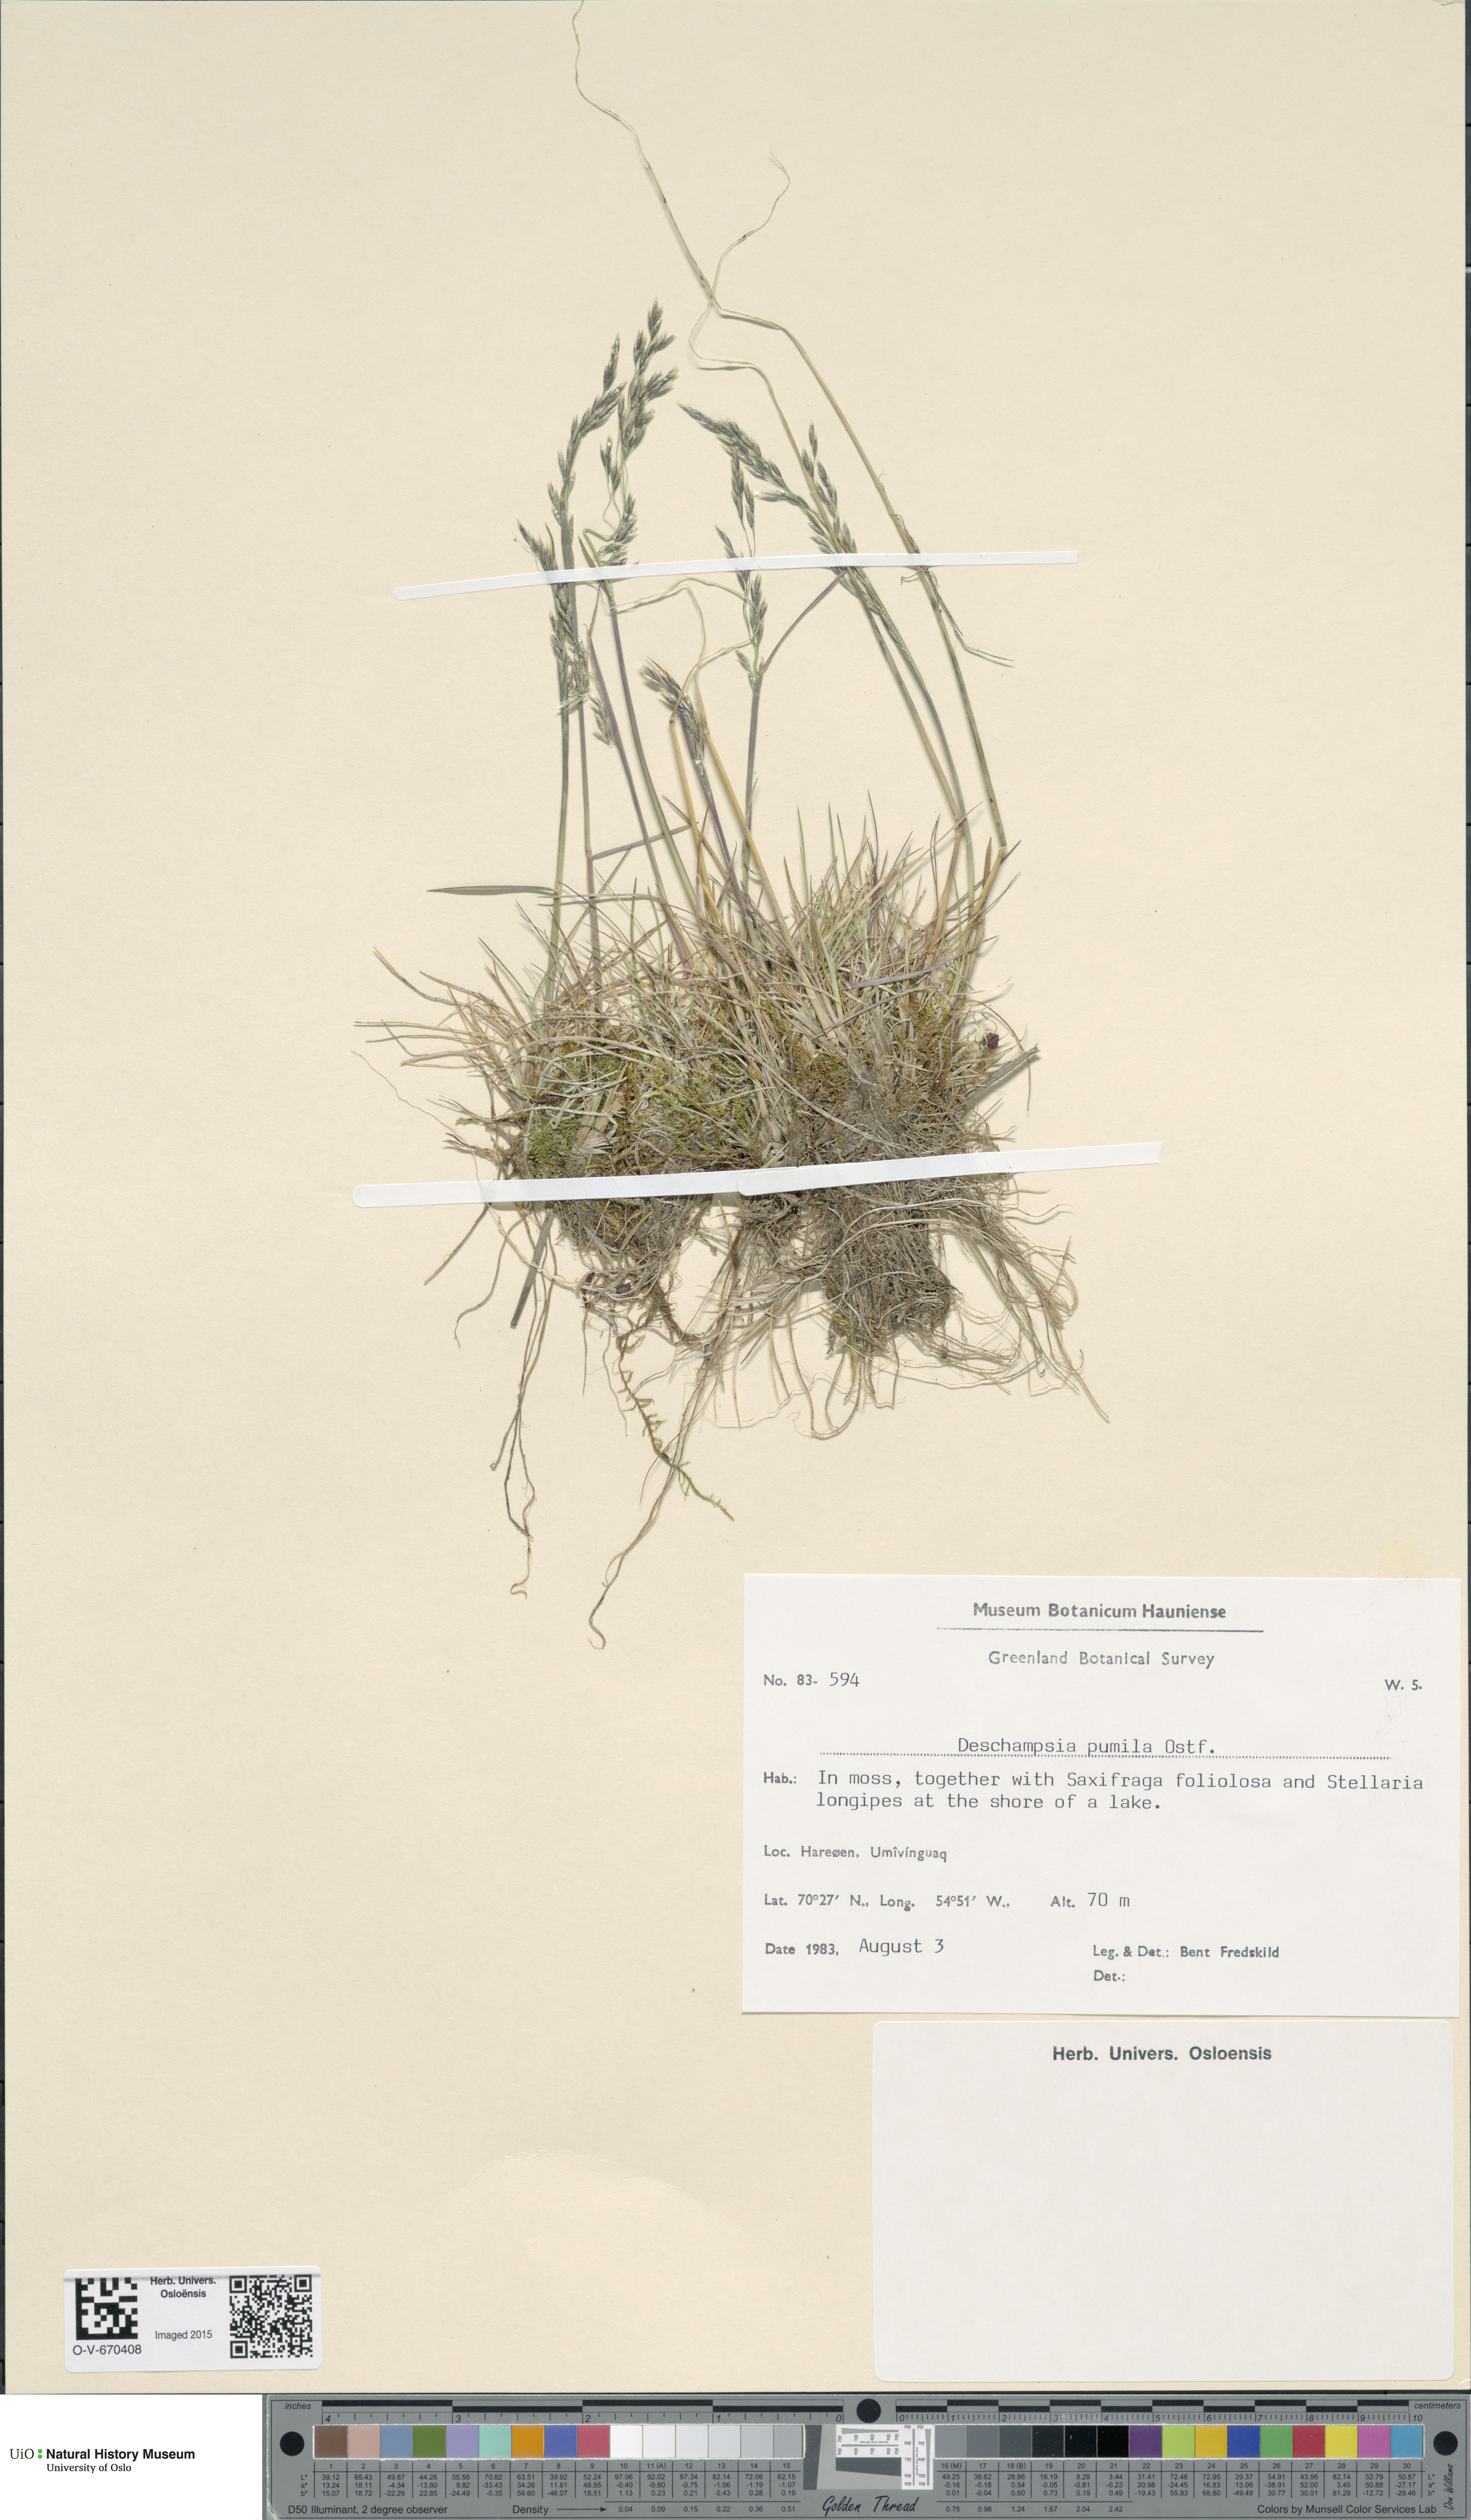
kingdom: Plantae
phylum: Tracheophyta
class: Liliopsida
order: Poales
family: Poaceae
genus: Deschampsia
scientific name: Deschampsia cespitosa
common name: Tufted hair-grass
